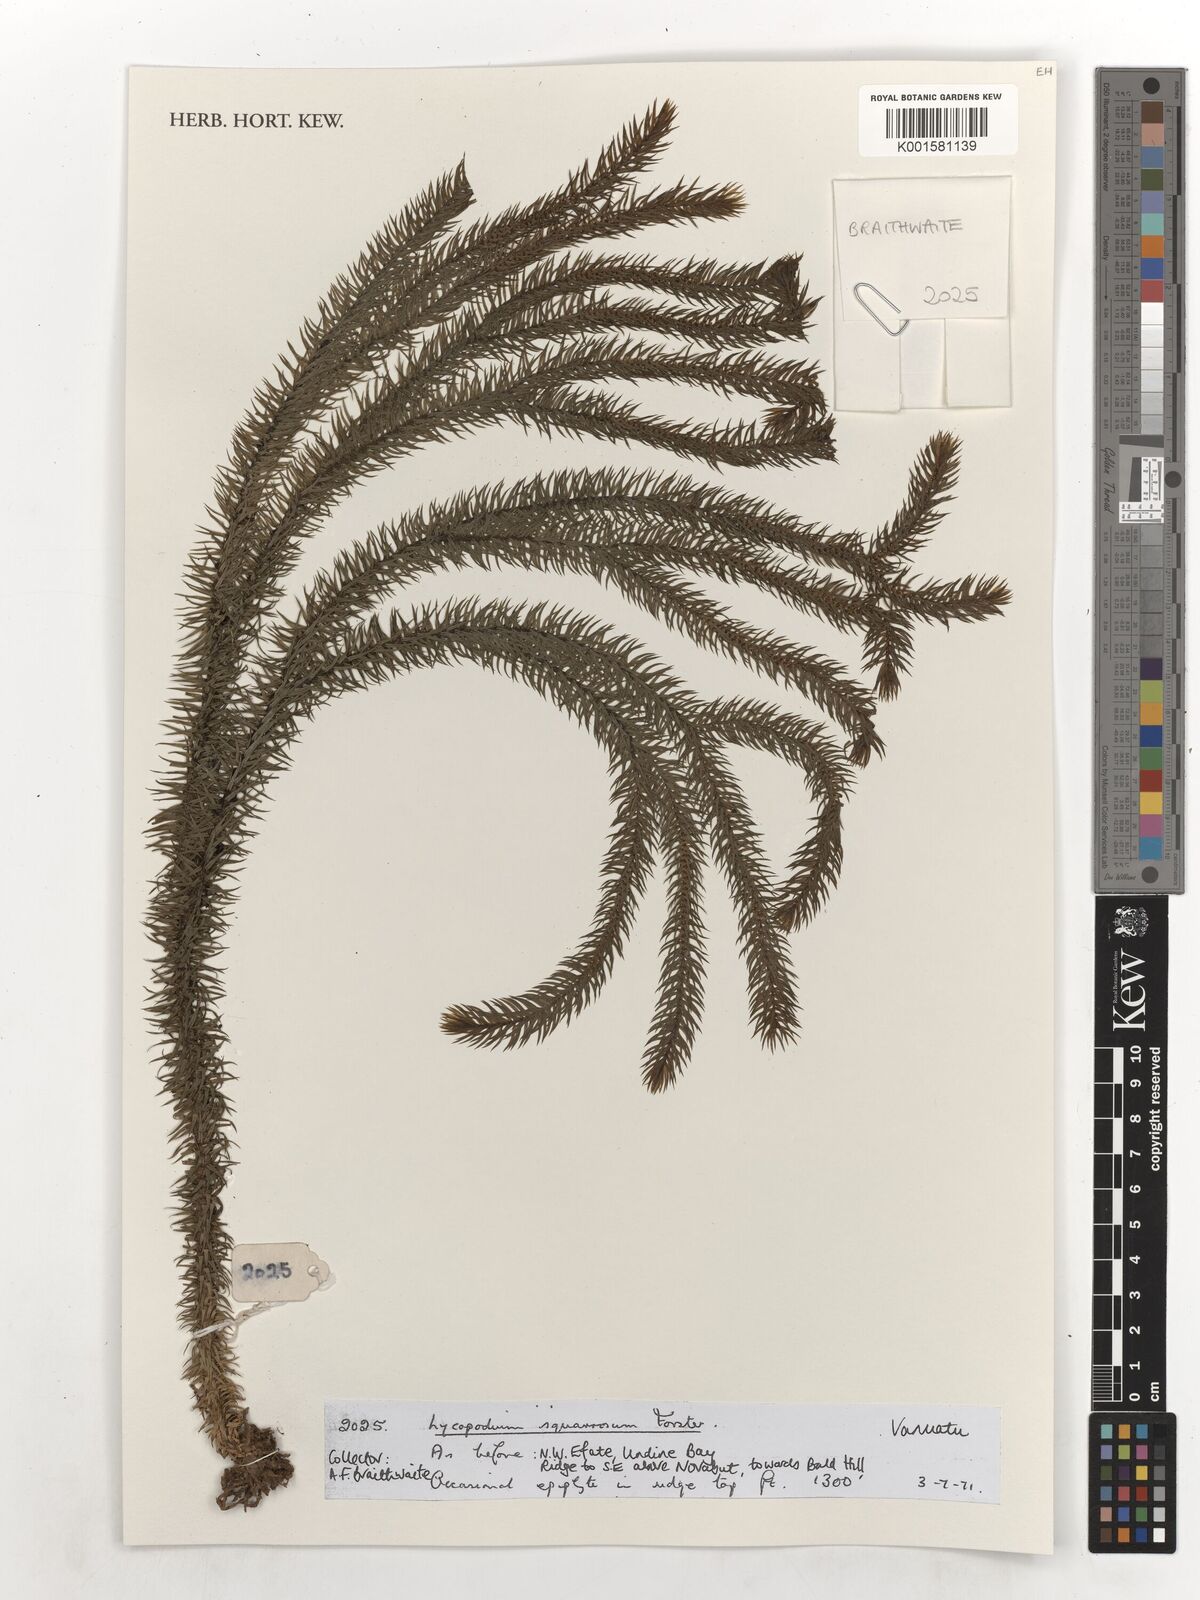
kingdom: Plantae
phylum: Tracheophyta
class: Lycopodiopsida
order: Lycopodiales
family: Lycopodiaceae
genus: Phlegmariurus
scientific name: Phlegmariurus squarrosus
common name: Rock tassel-fern
